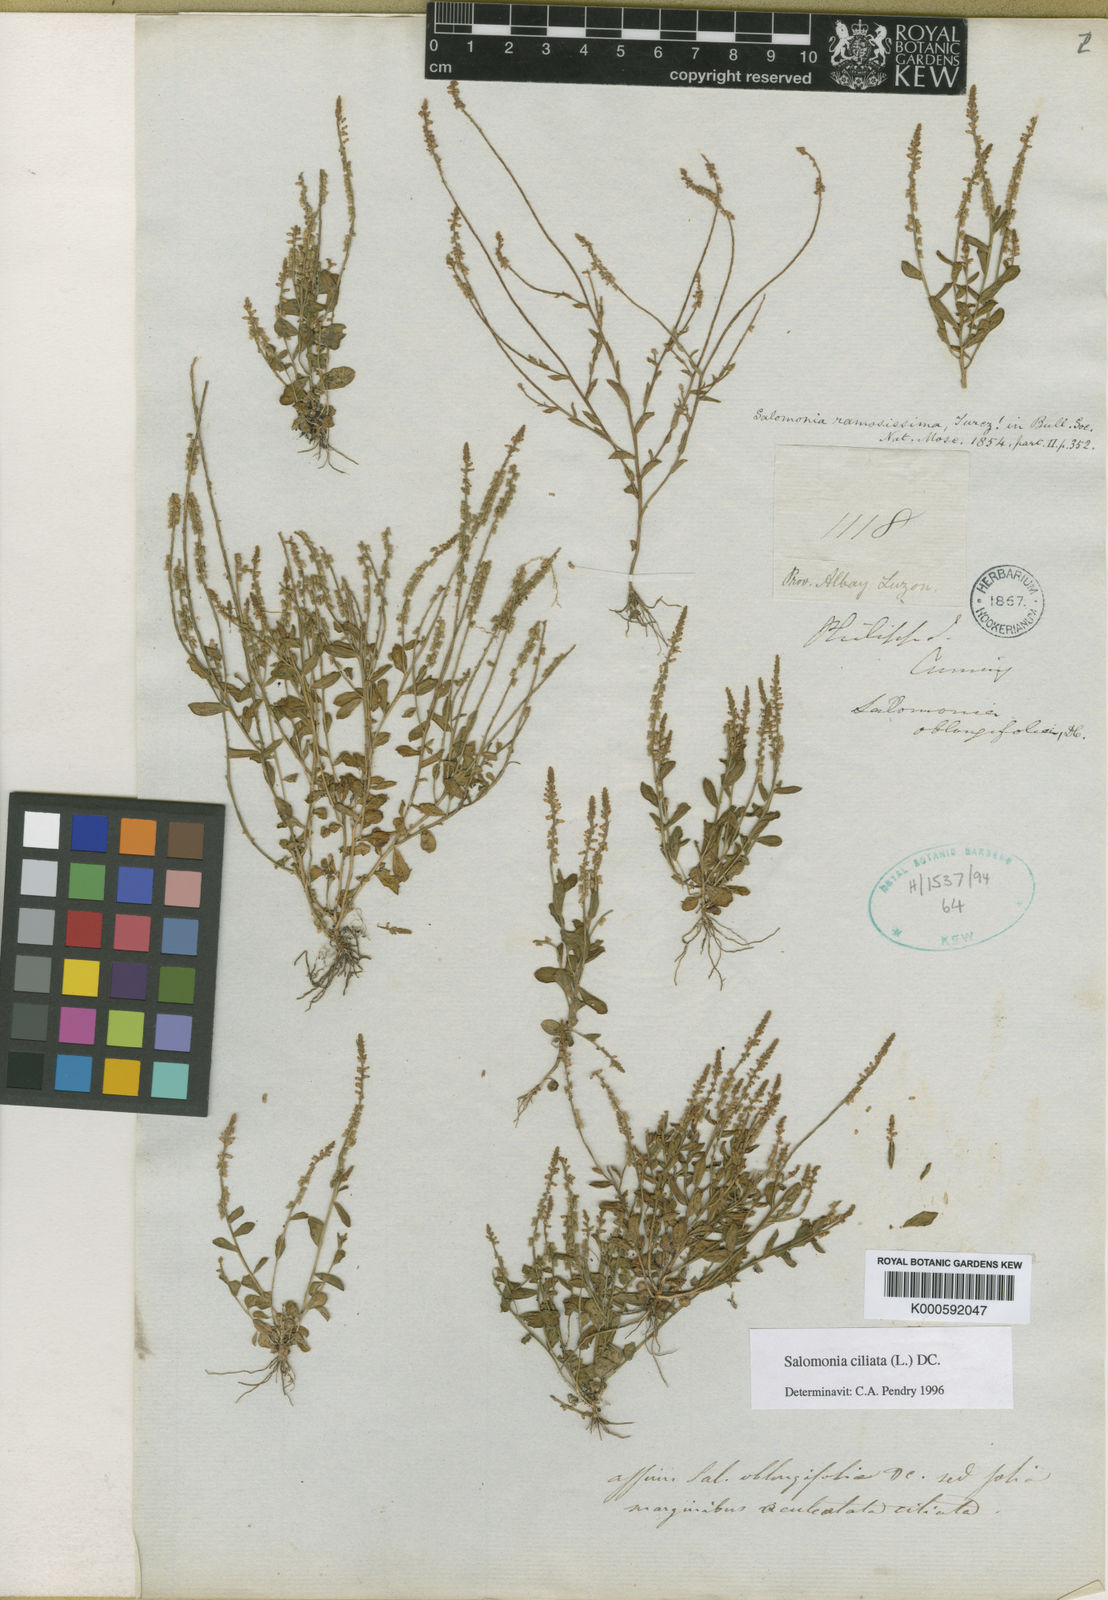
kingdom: Plantae
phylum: Tracheophyta
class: Magnoliopsida
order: Fabales
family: Polygalaceae
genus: Salomonia
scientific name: Salomonia ciliata
